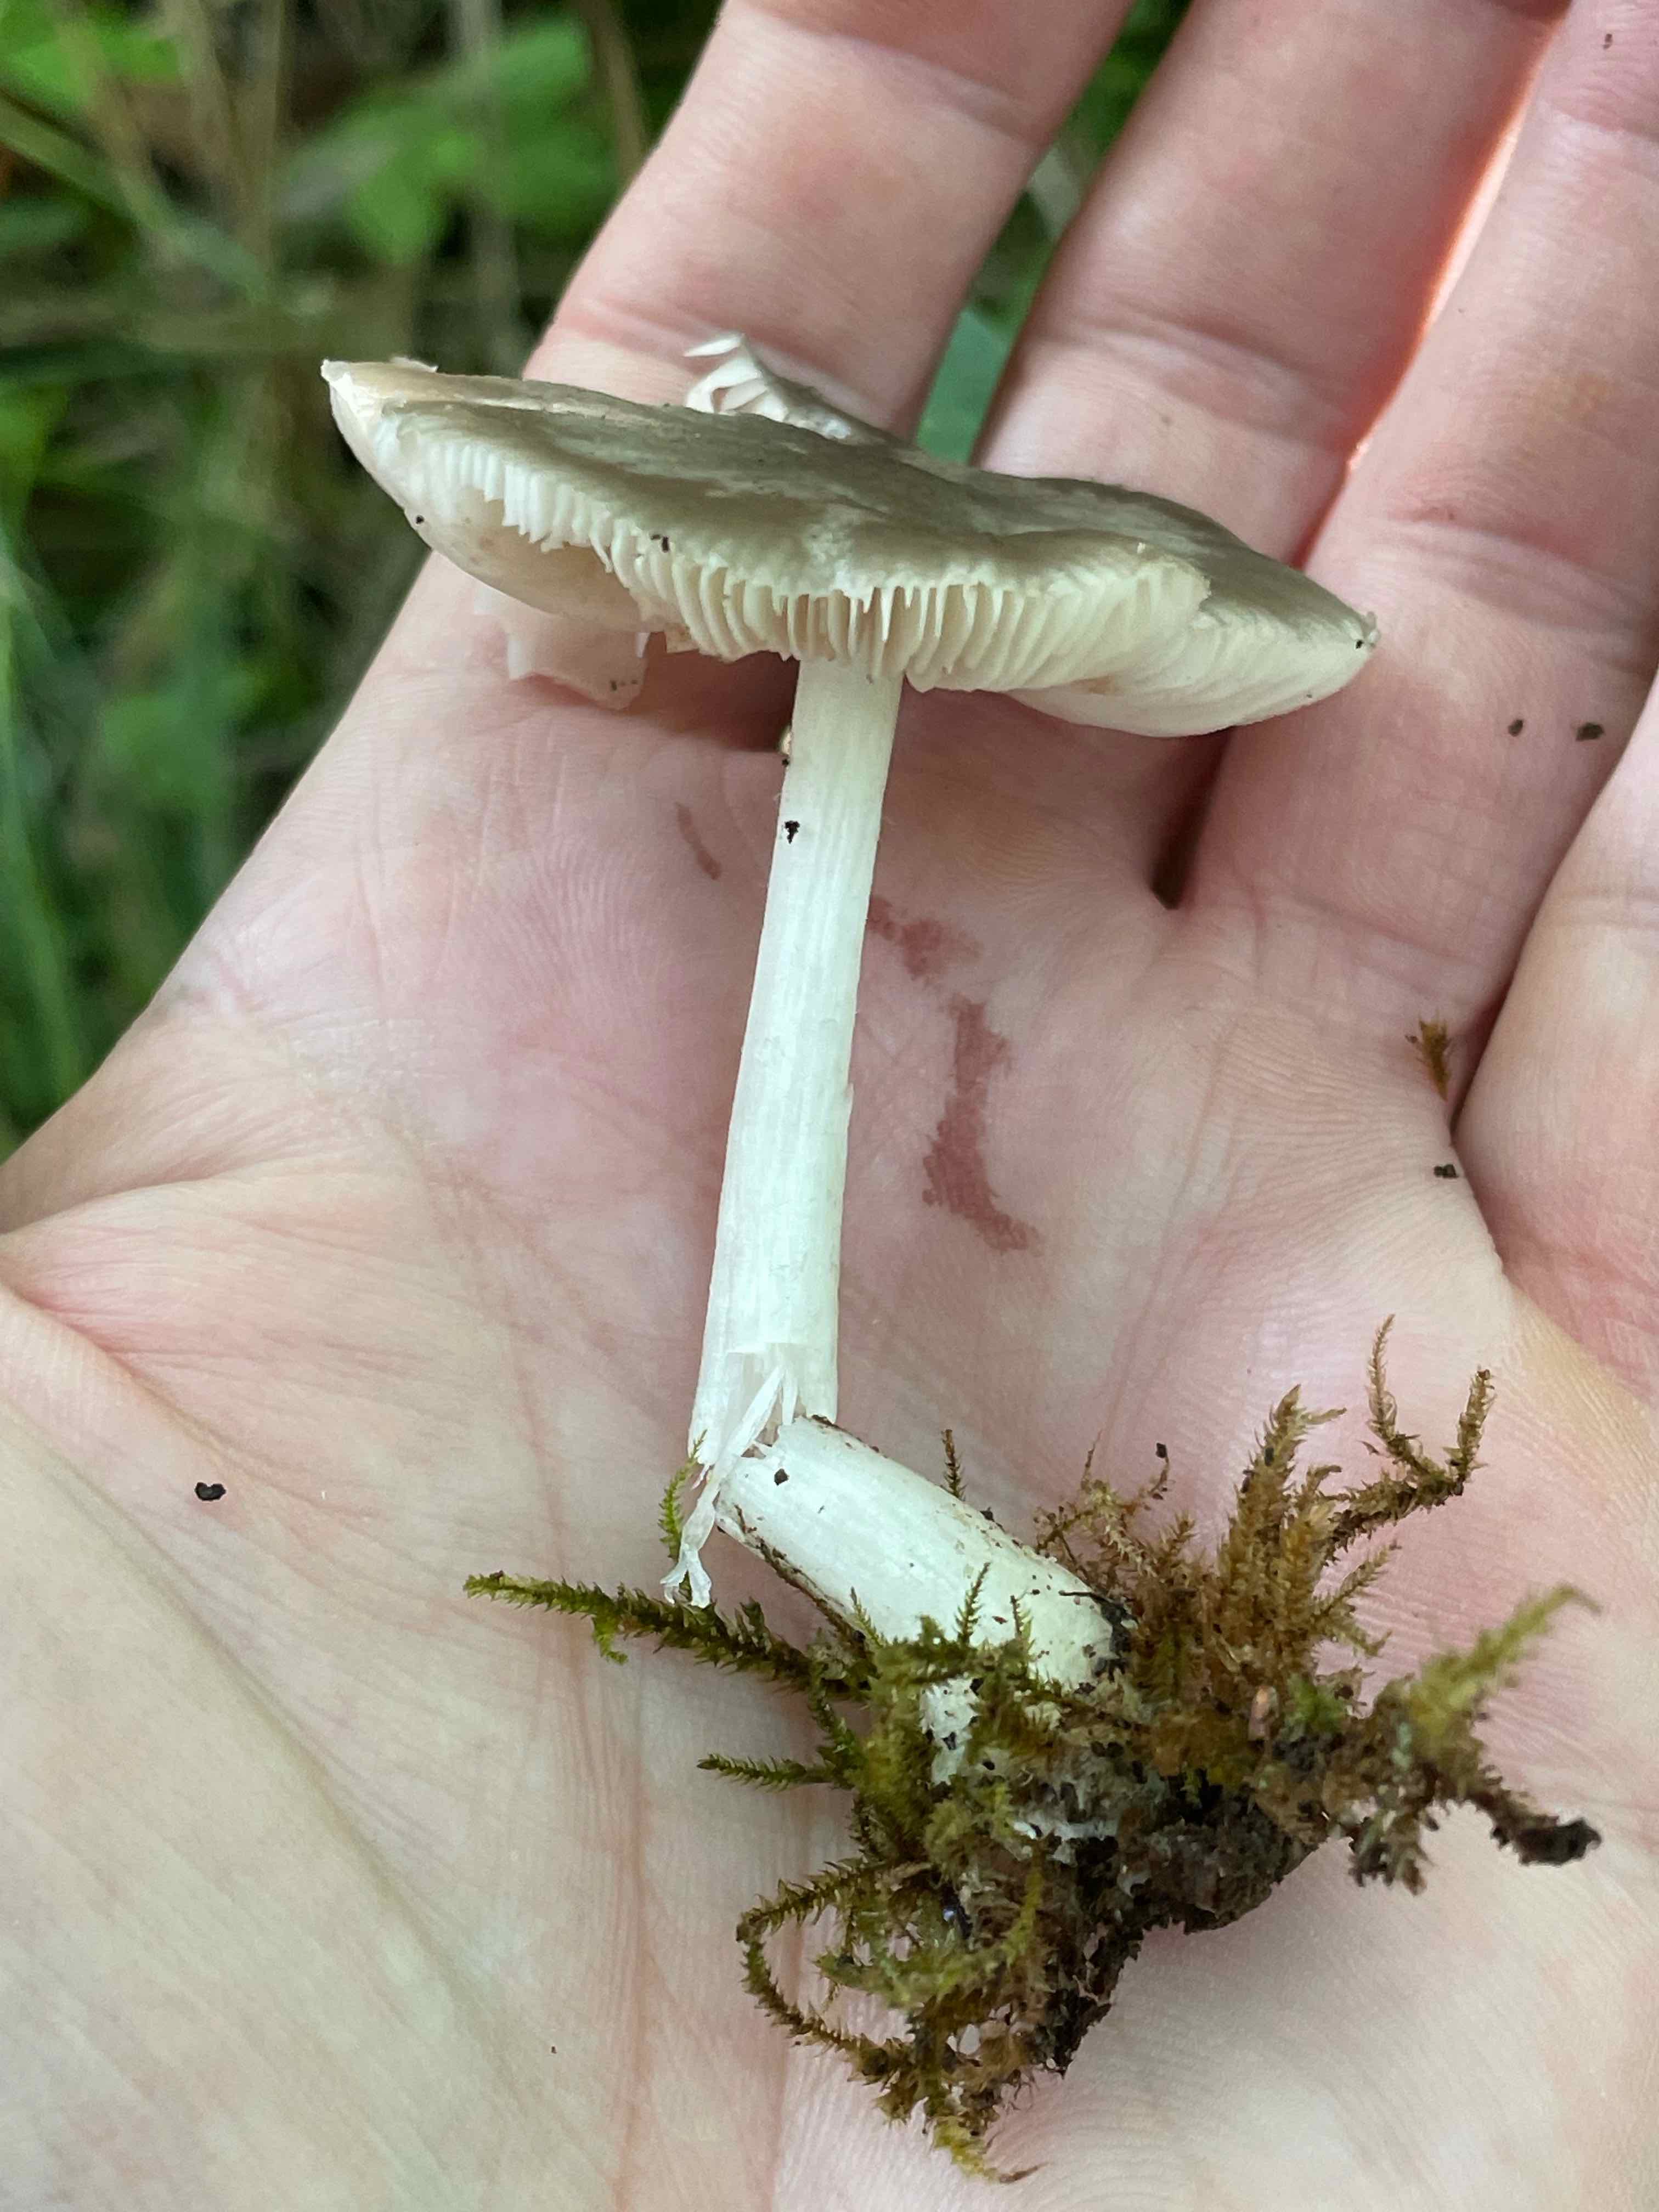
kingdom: Fungi
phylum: Basidiomycota
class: Agaricomycetes
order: Agaricales
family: Pluteaceae
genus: Pluteus
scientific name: Pluteus
